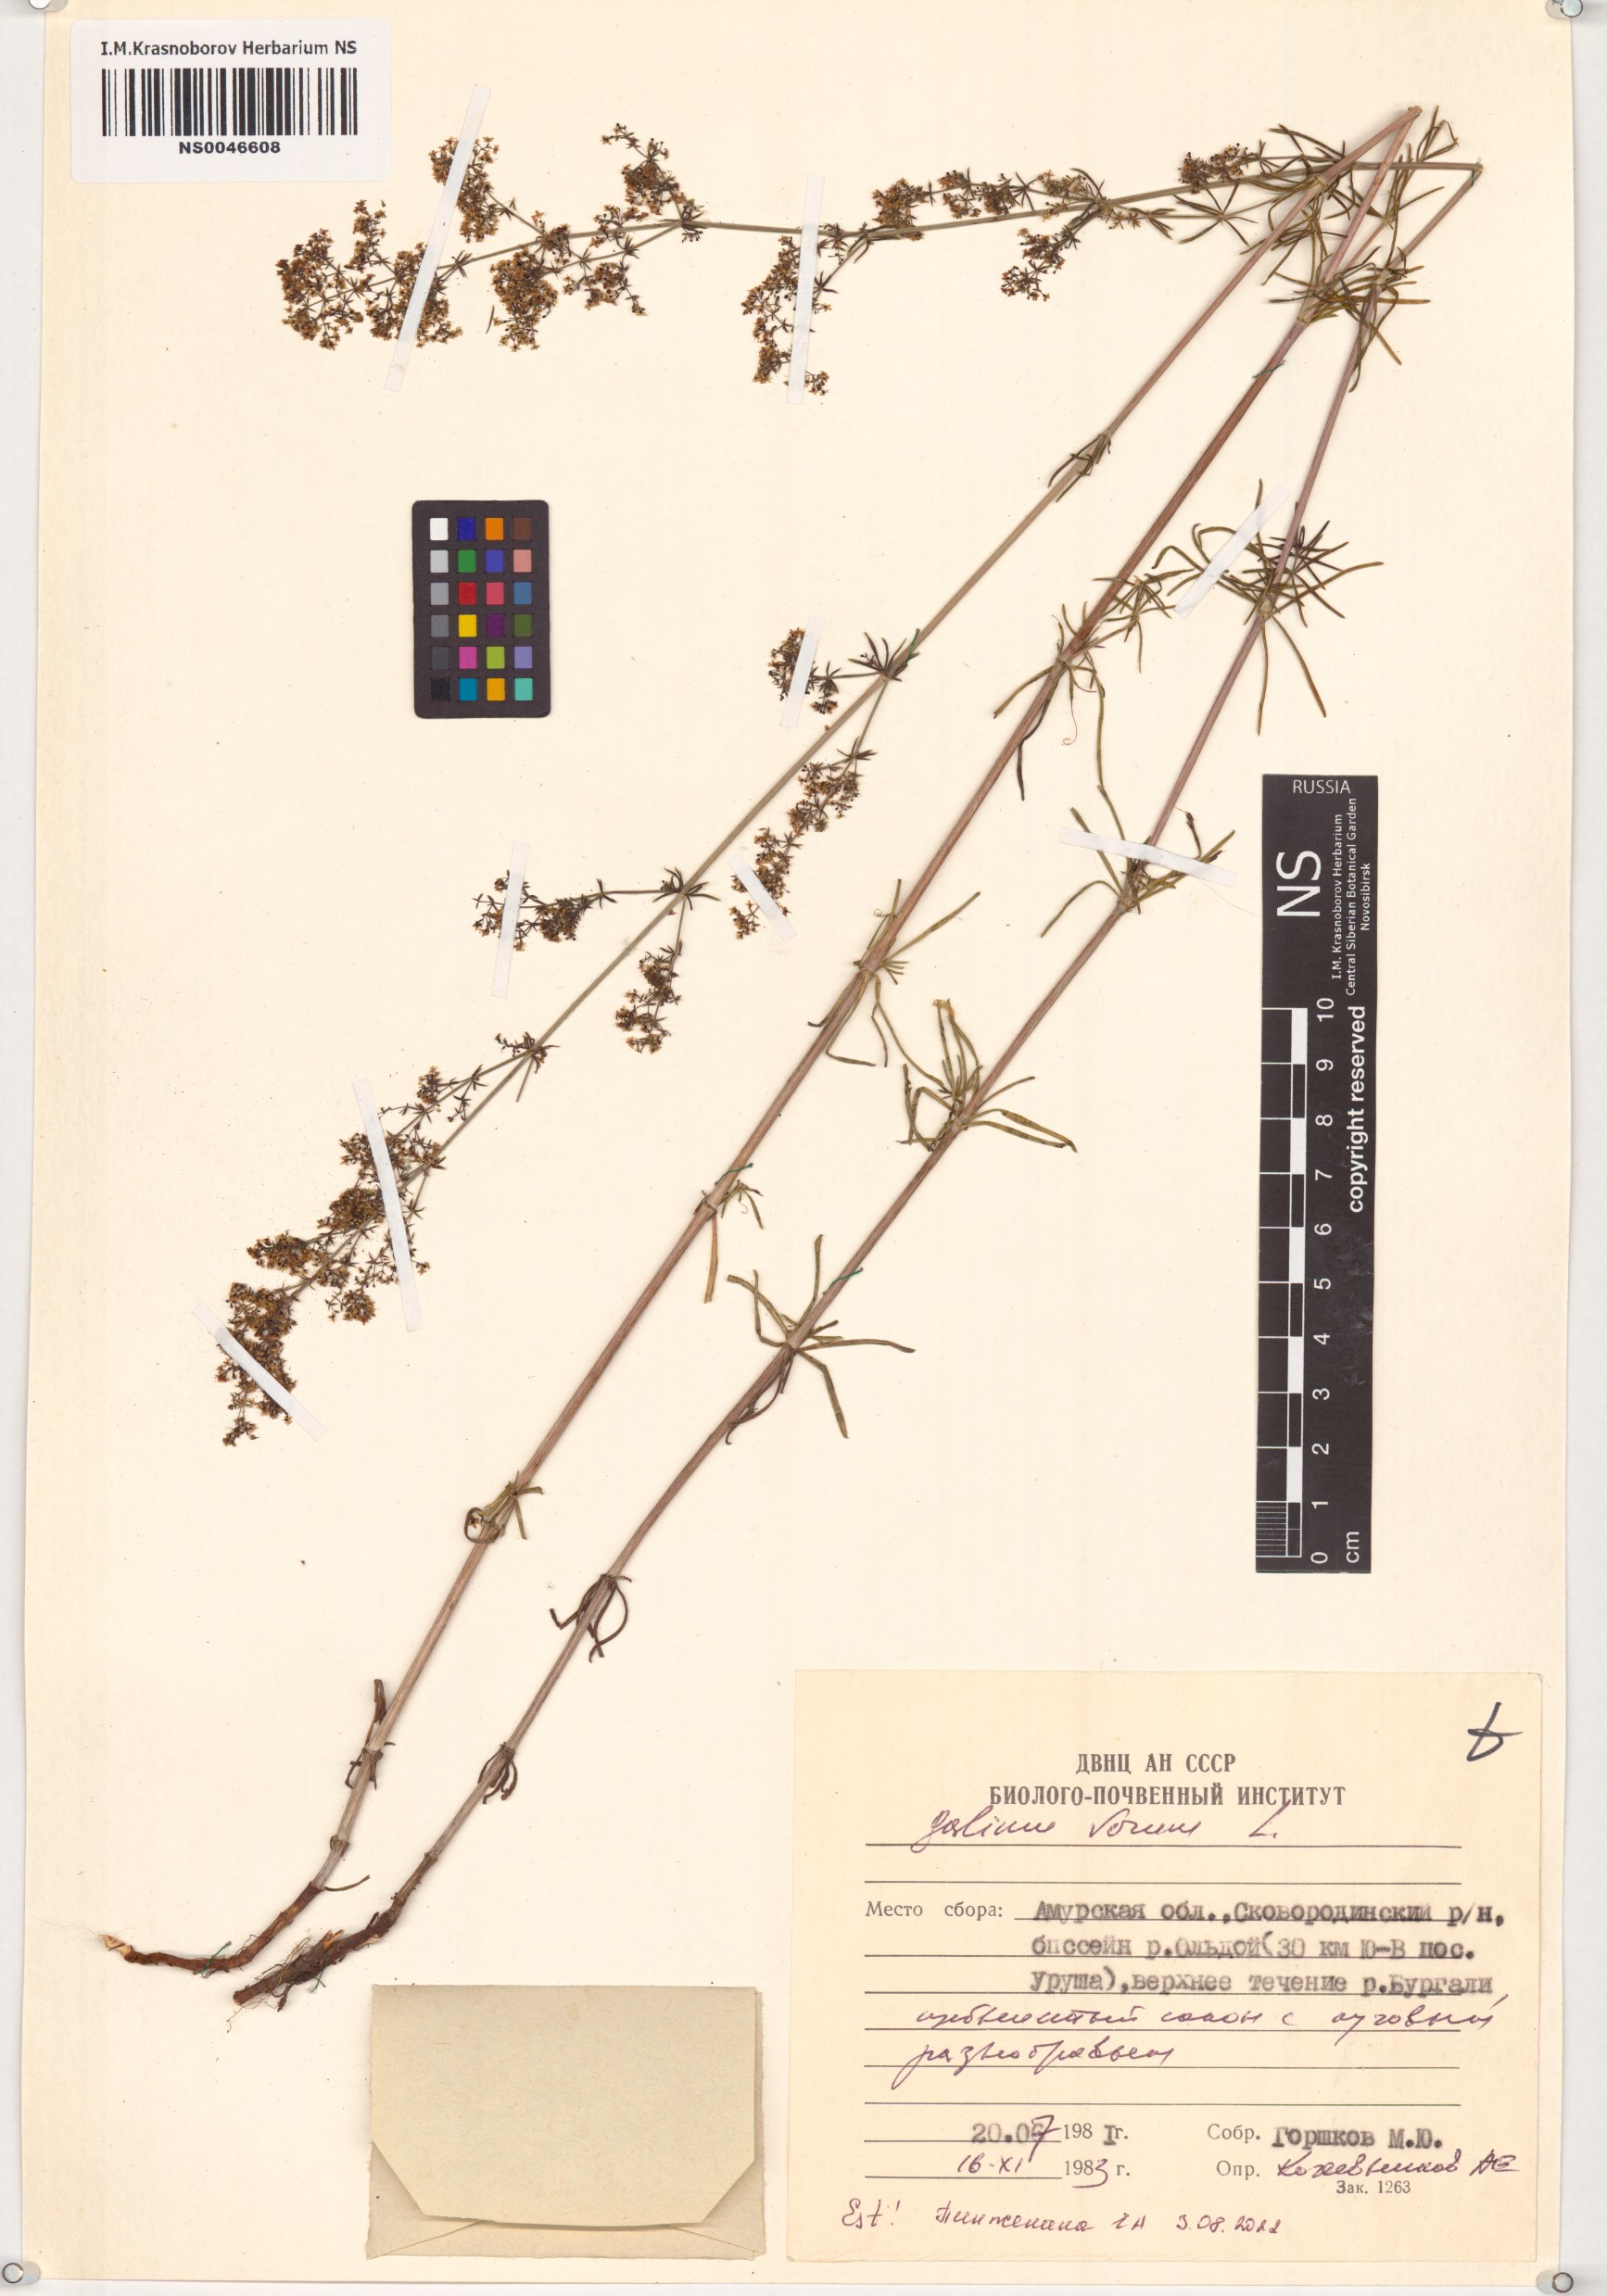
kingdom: Plantae
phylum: Tracheophyta
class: Magnoliopsida
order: Gentianales
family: Rubiaceae
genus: Galium
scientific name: Galium verum
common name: Lady's bedstraw
